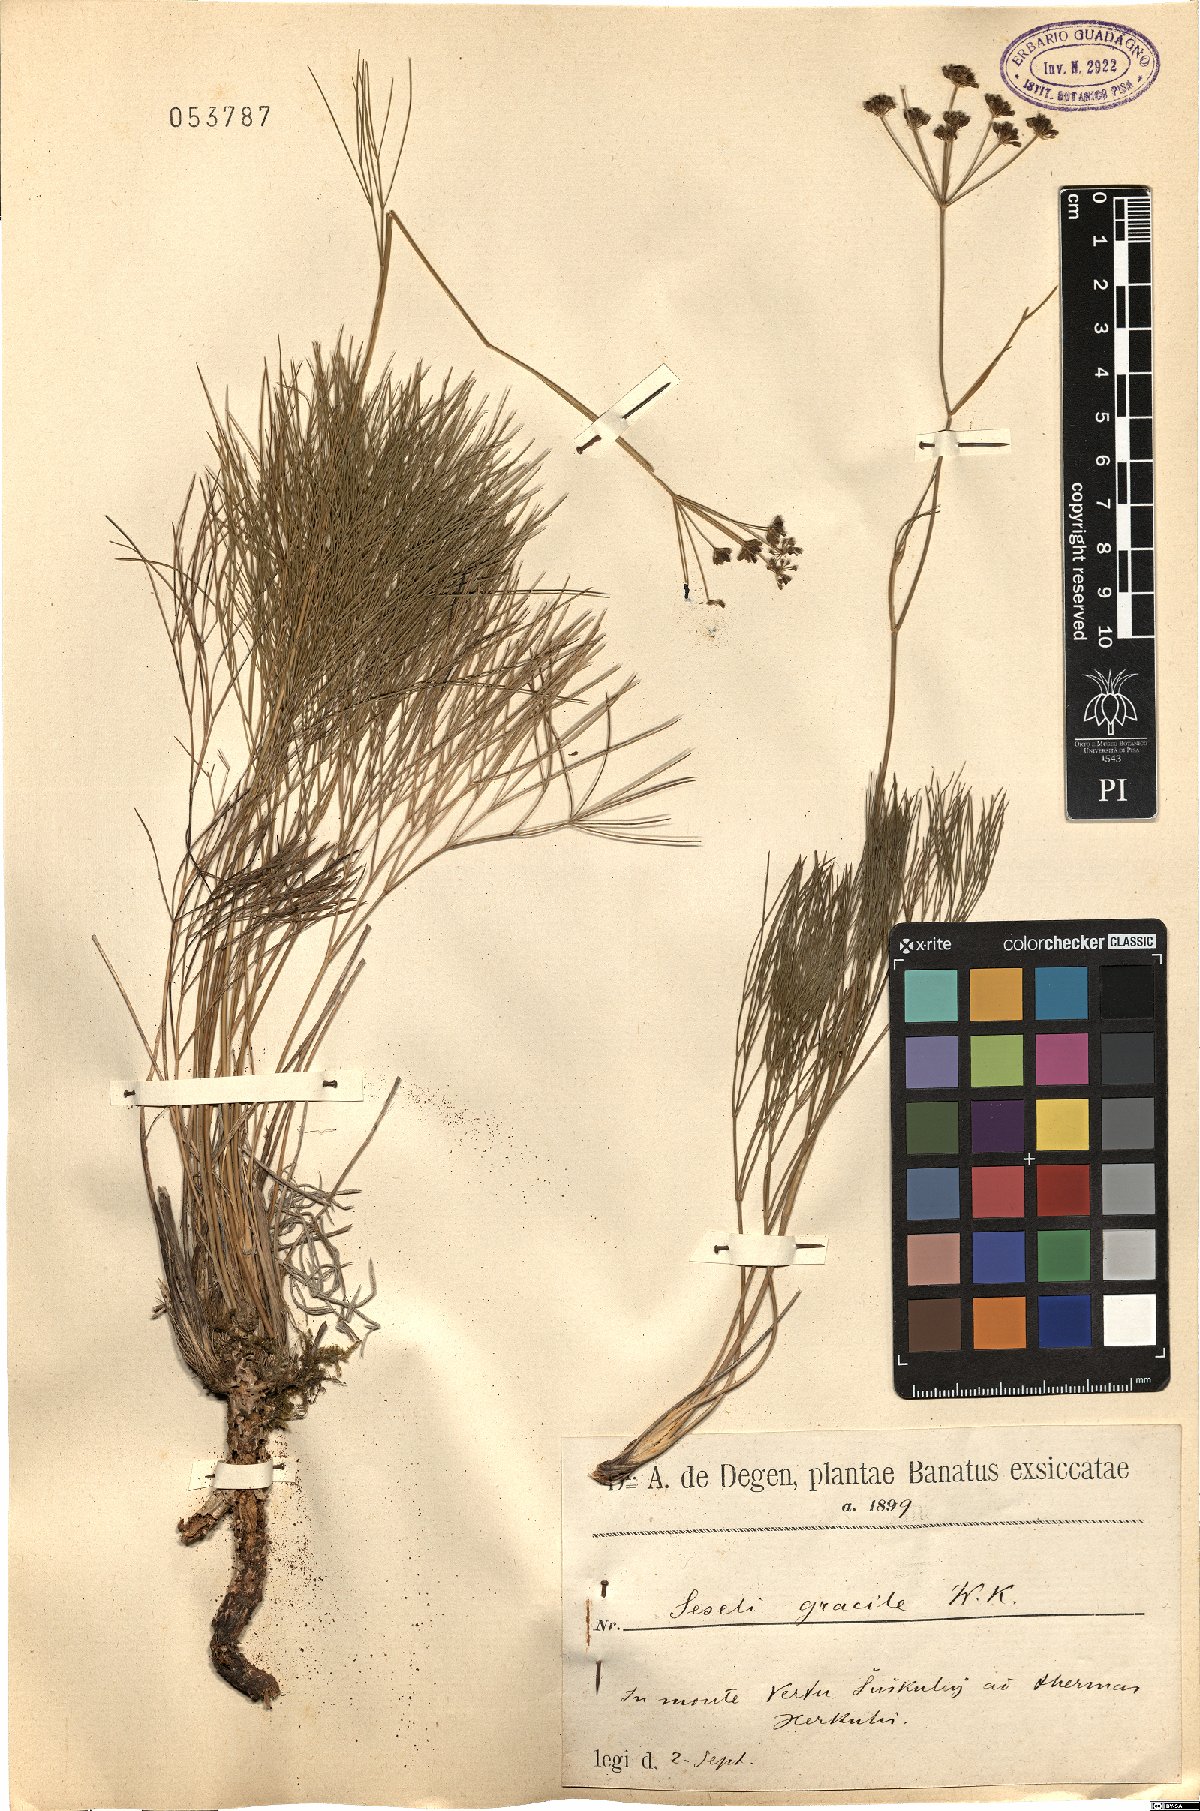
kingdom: Plantae
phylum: Tracheophyta
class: Magnoliopsida
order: Apiales
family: Apiaceae
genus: Seseli
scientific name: Seseli gracile
